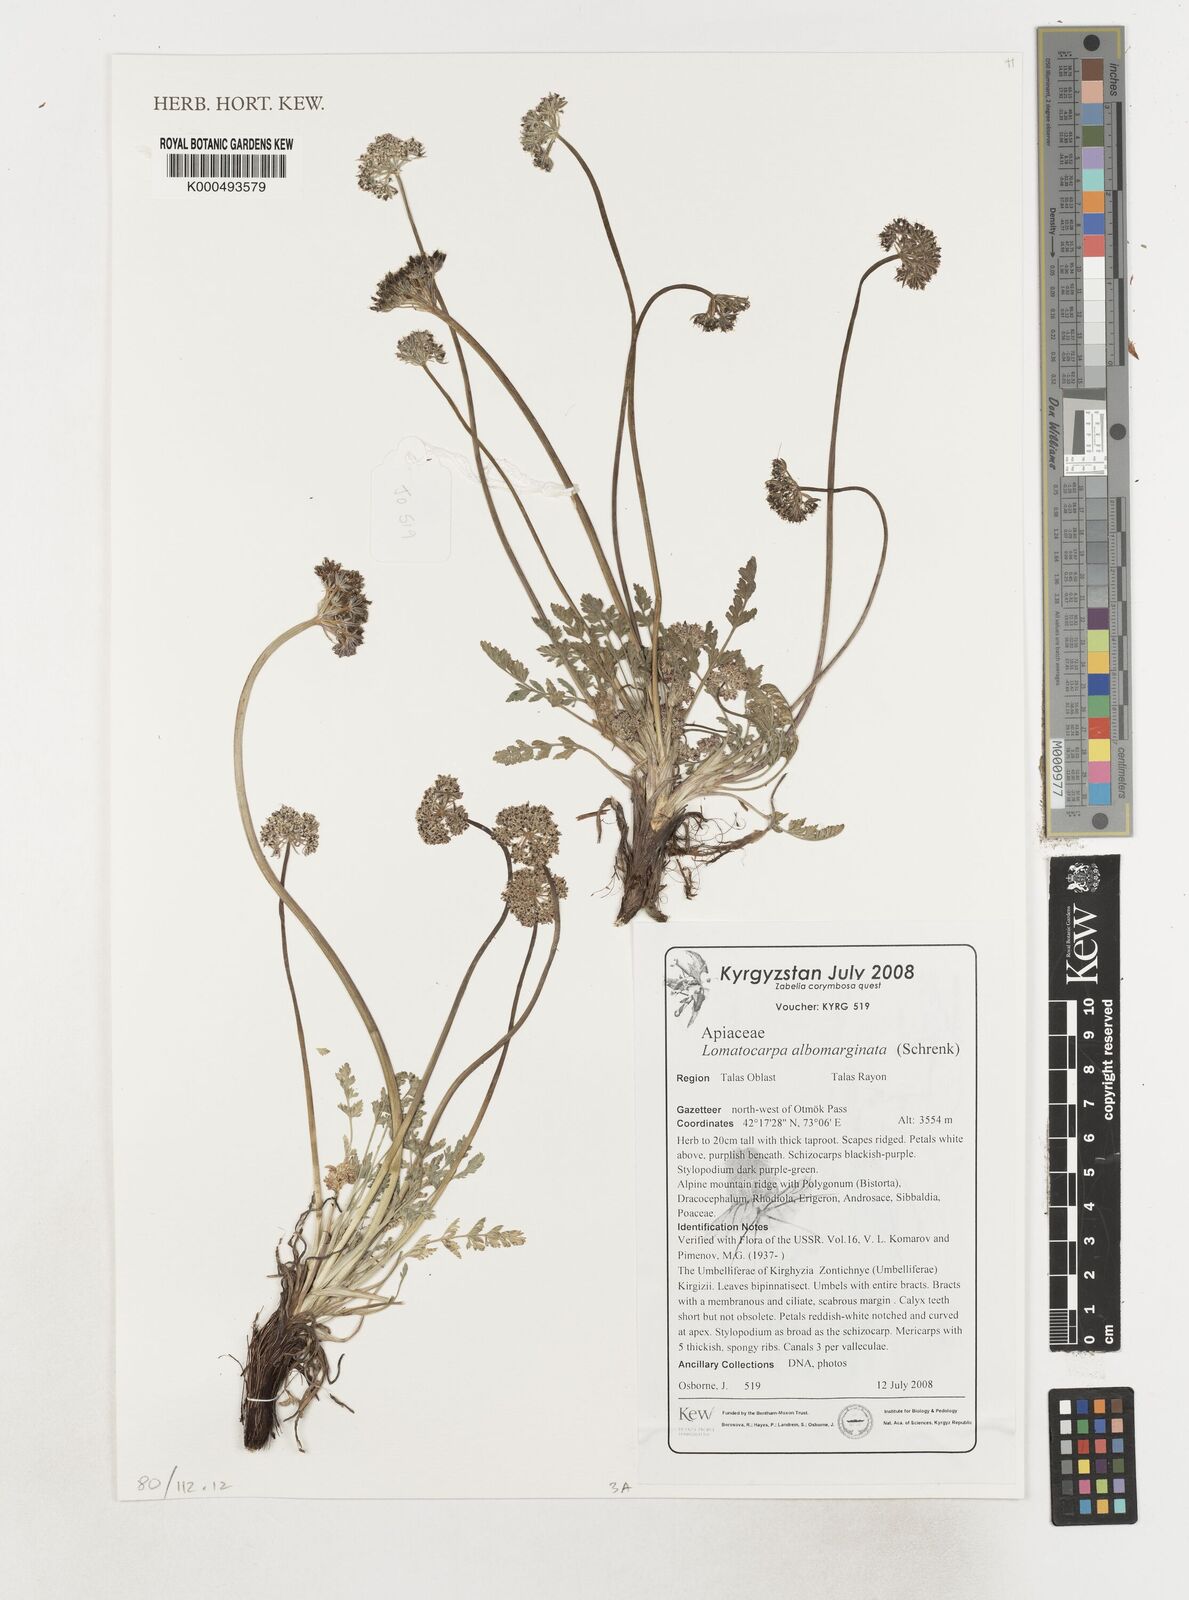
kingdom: Plantae
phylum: Tracheophyta
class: Magnoliopsida
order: Apiales
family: Apiaceae
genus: Lomatocarpa
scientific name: Lomatocarpa albomarginata
